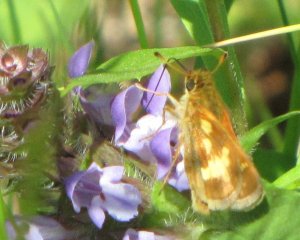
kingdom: Animalia
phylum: Arthropoda
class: Insecta
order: Lepidoptera
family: Hesperiidae
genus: Polites
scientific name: Polites coras
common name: Peck's Skipper
